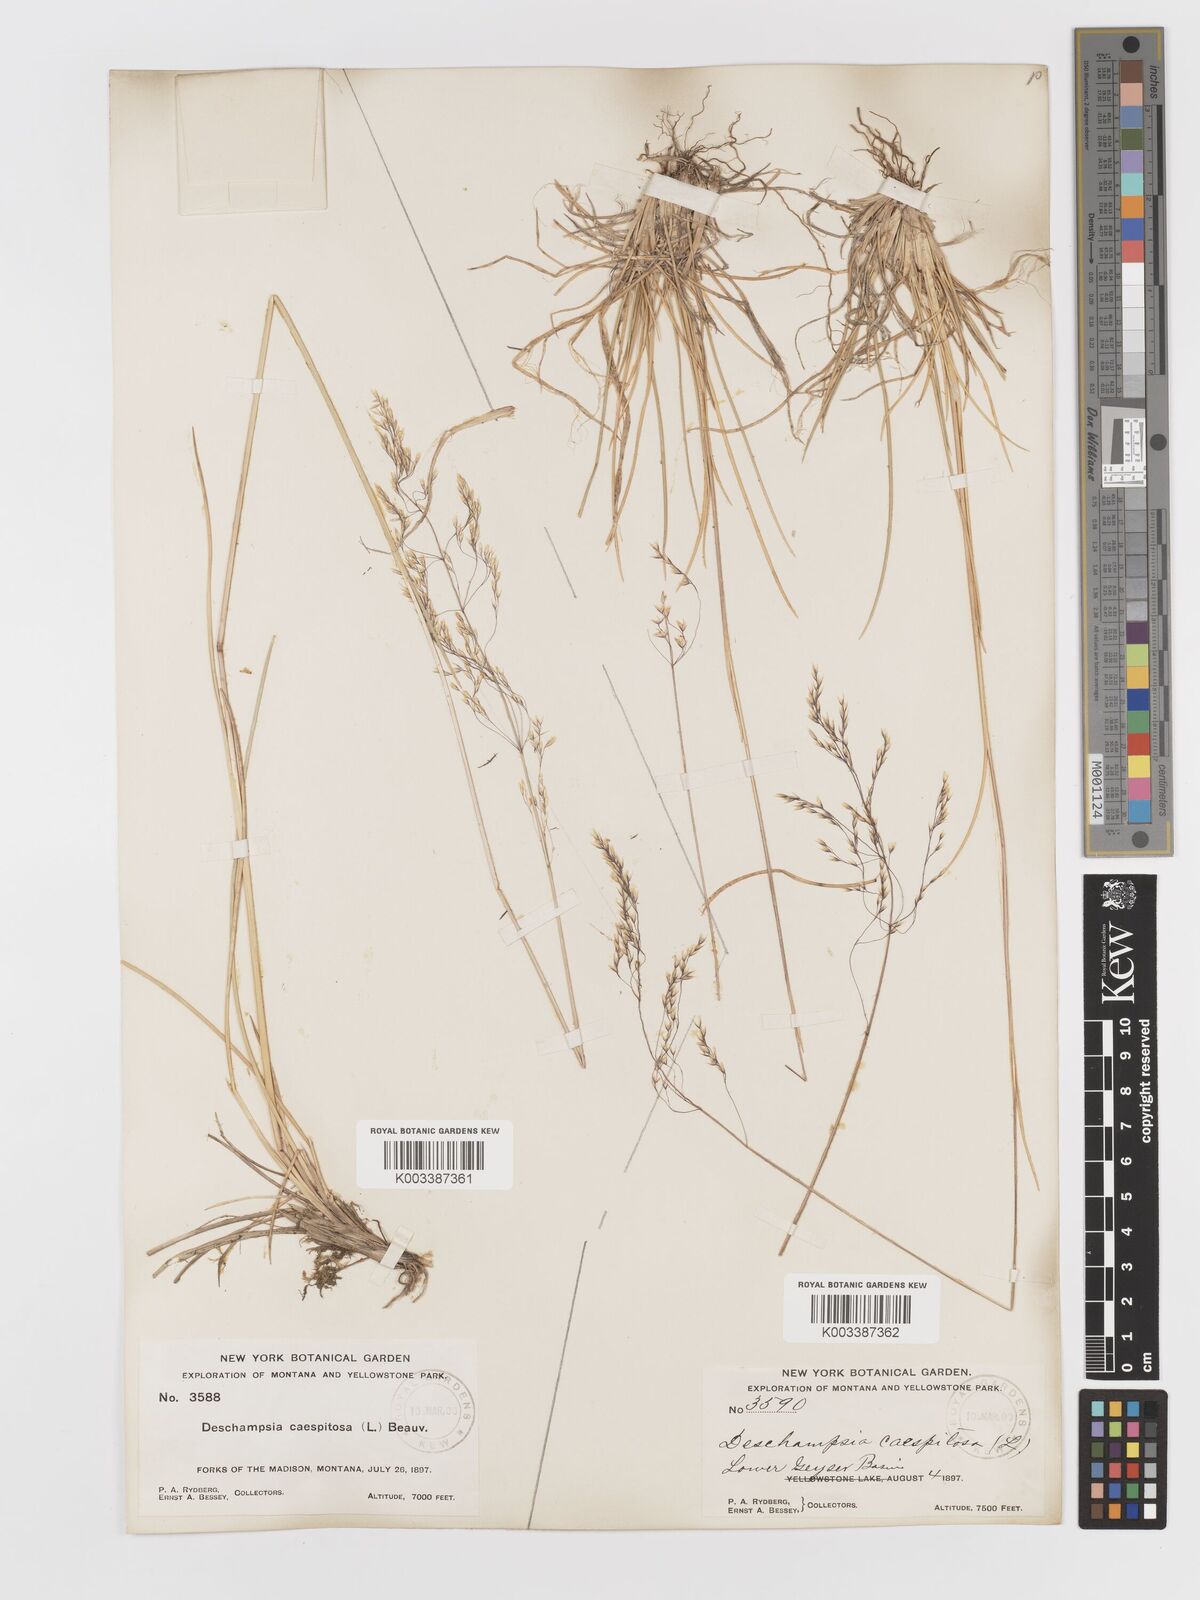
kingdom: Plantae
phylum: Tracheophyta
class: Liliopsida
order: Poales
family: Poaceae
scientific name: Poaceae
